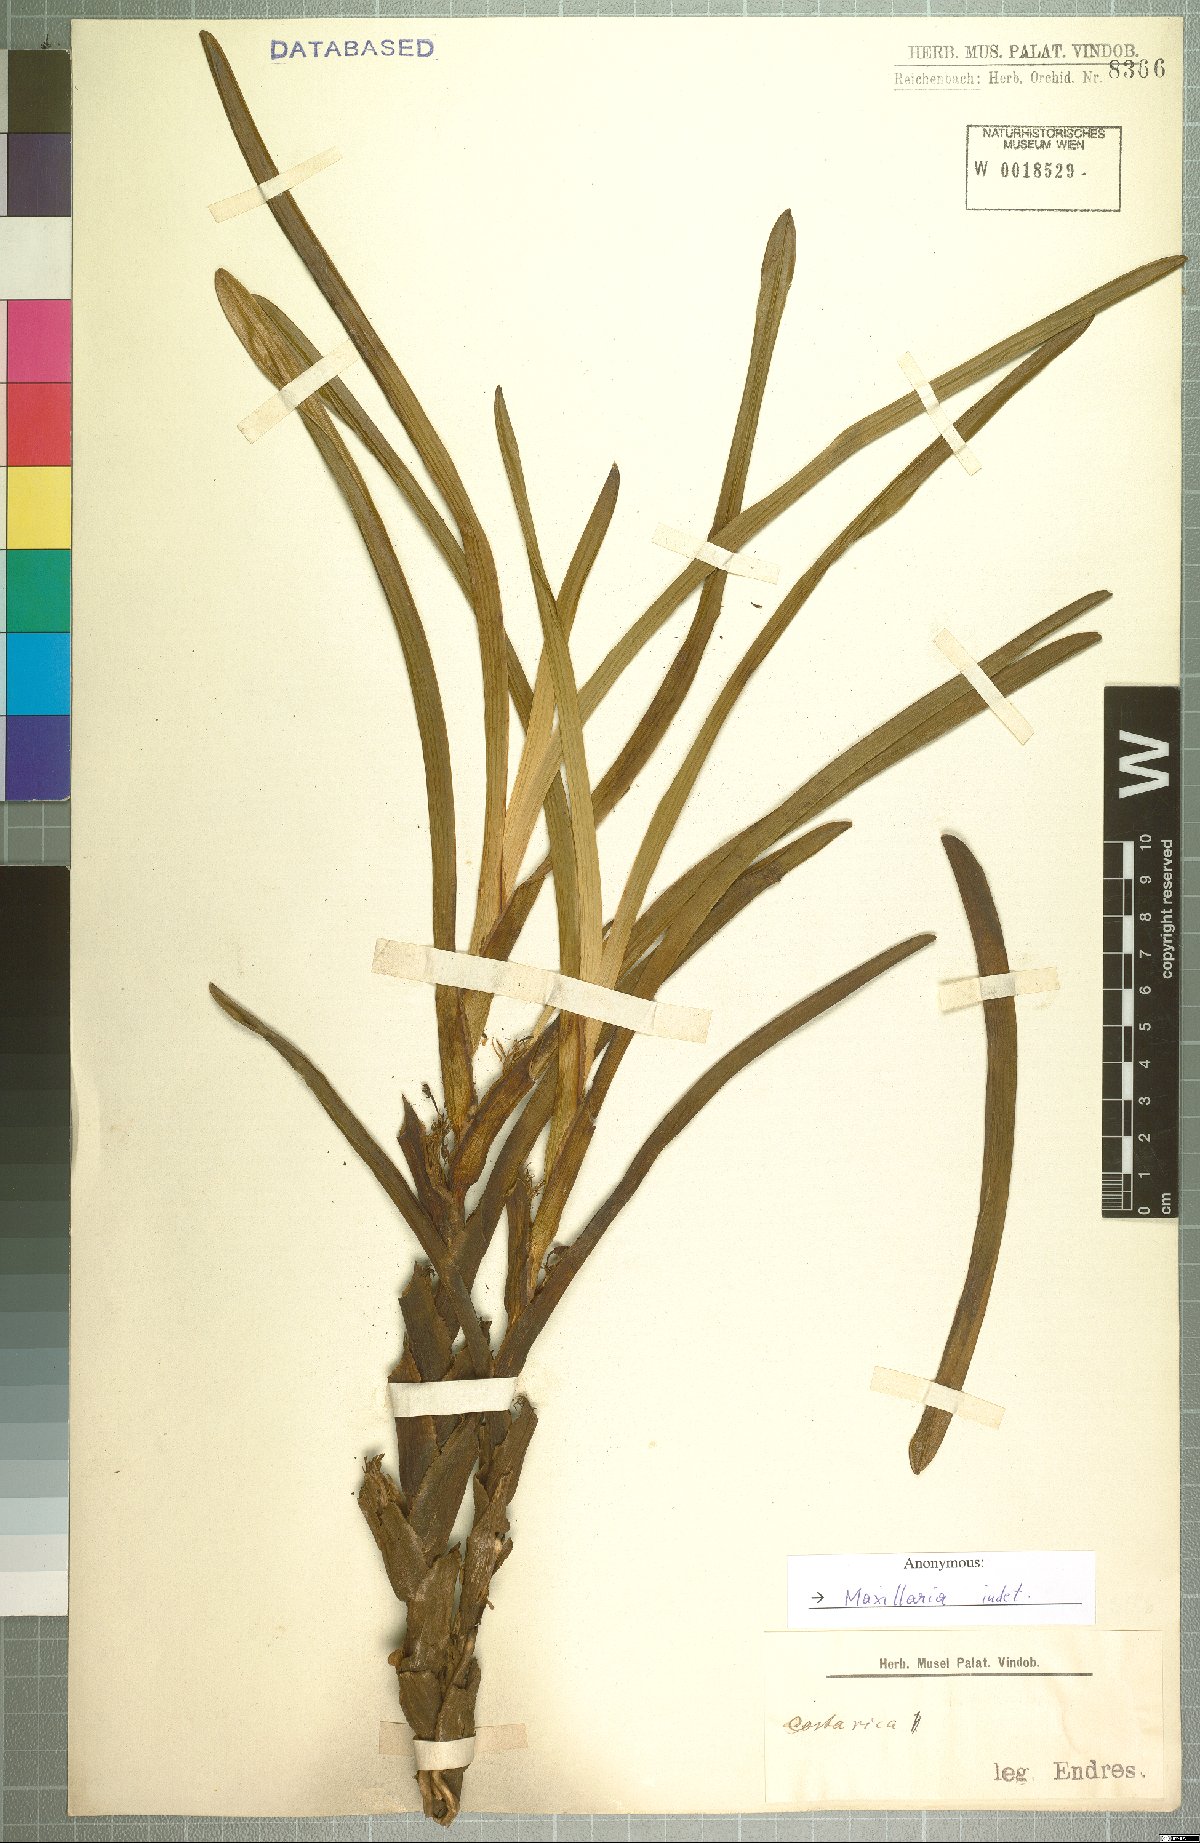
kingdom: Plantae
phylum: Tracheophyta
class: Liliopsida
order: Asparagales
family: Orchidaceae
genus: Maxillaria
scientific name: Maxillaria
